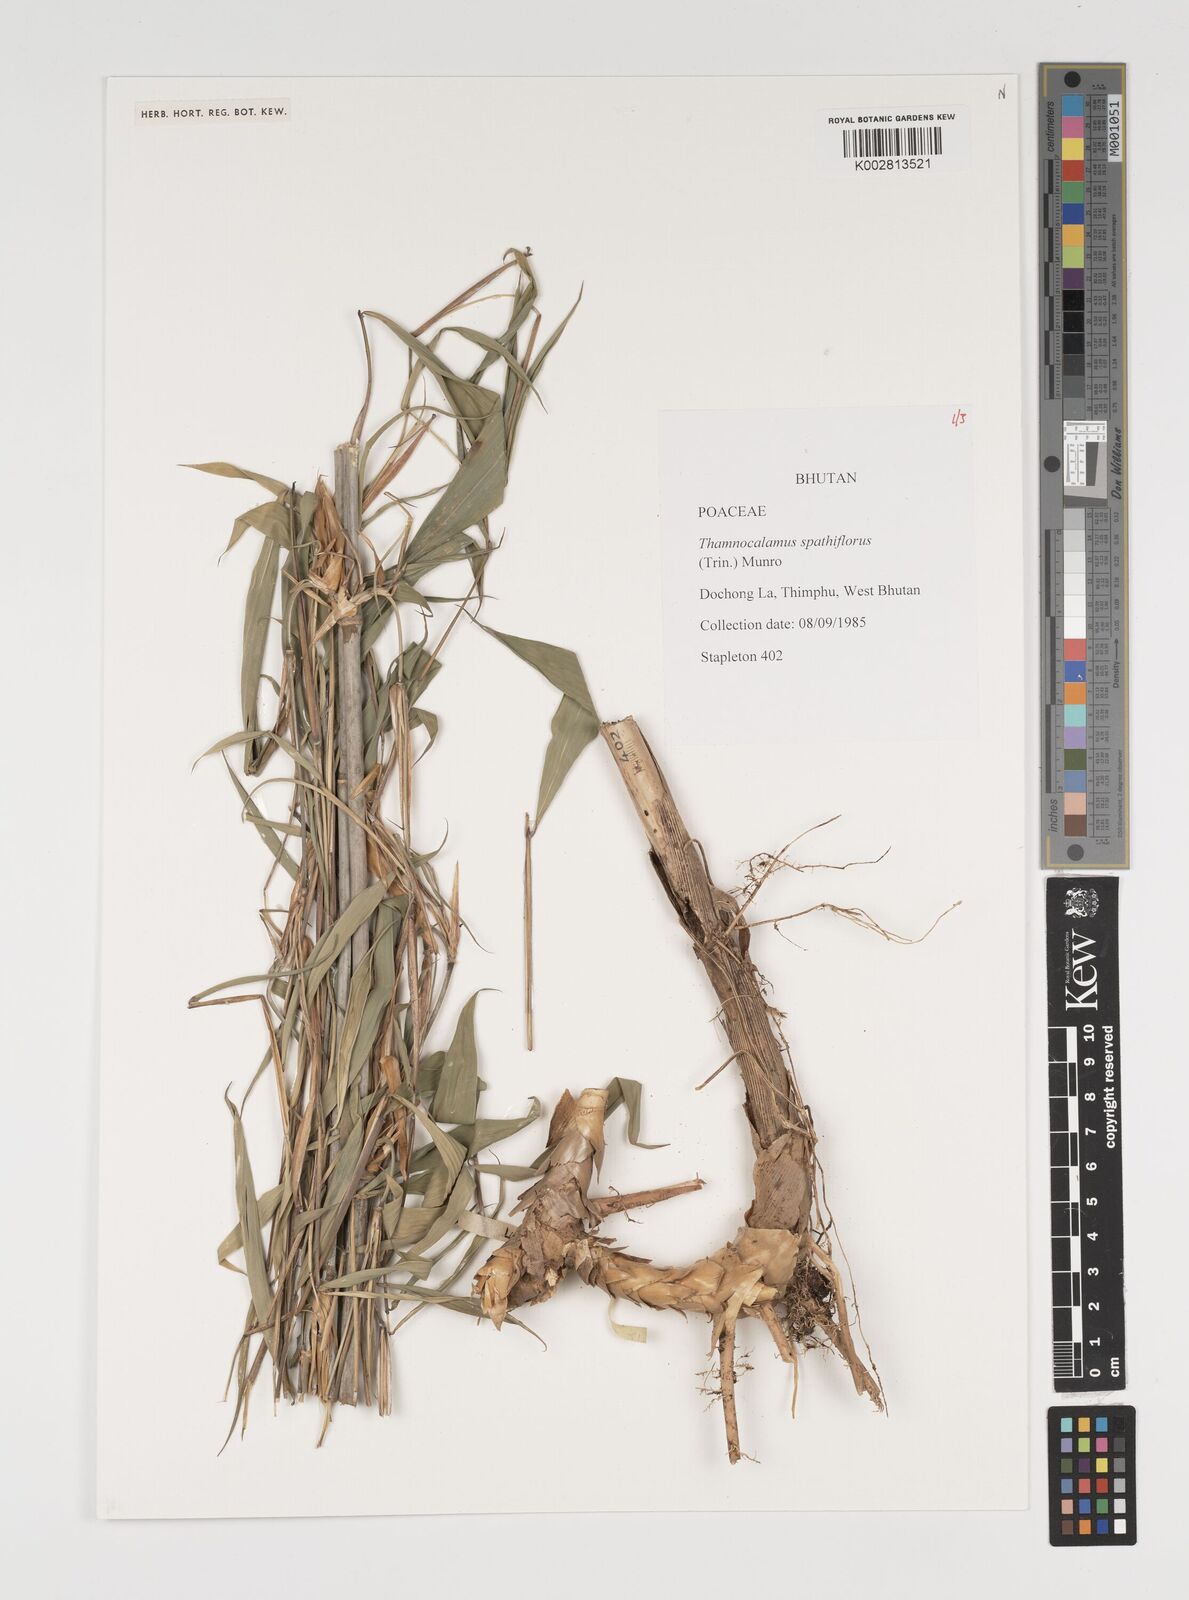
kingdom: Plantae
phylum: Tracheophyta
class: Liliopsida
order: Poales
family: Poaceae
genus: Thamnocalamus
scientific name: Thamnocalamus spathiflorus
